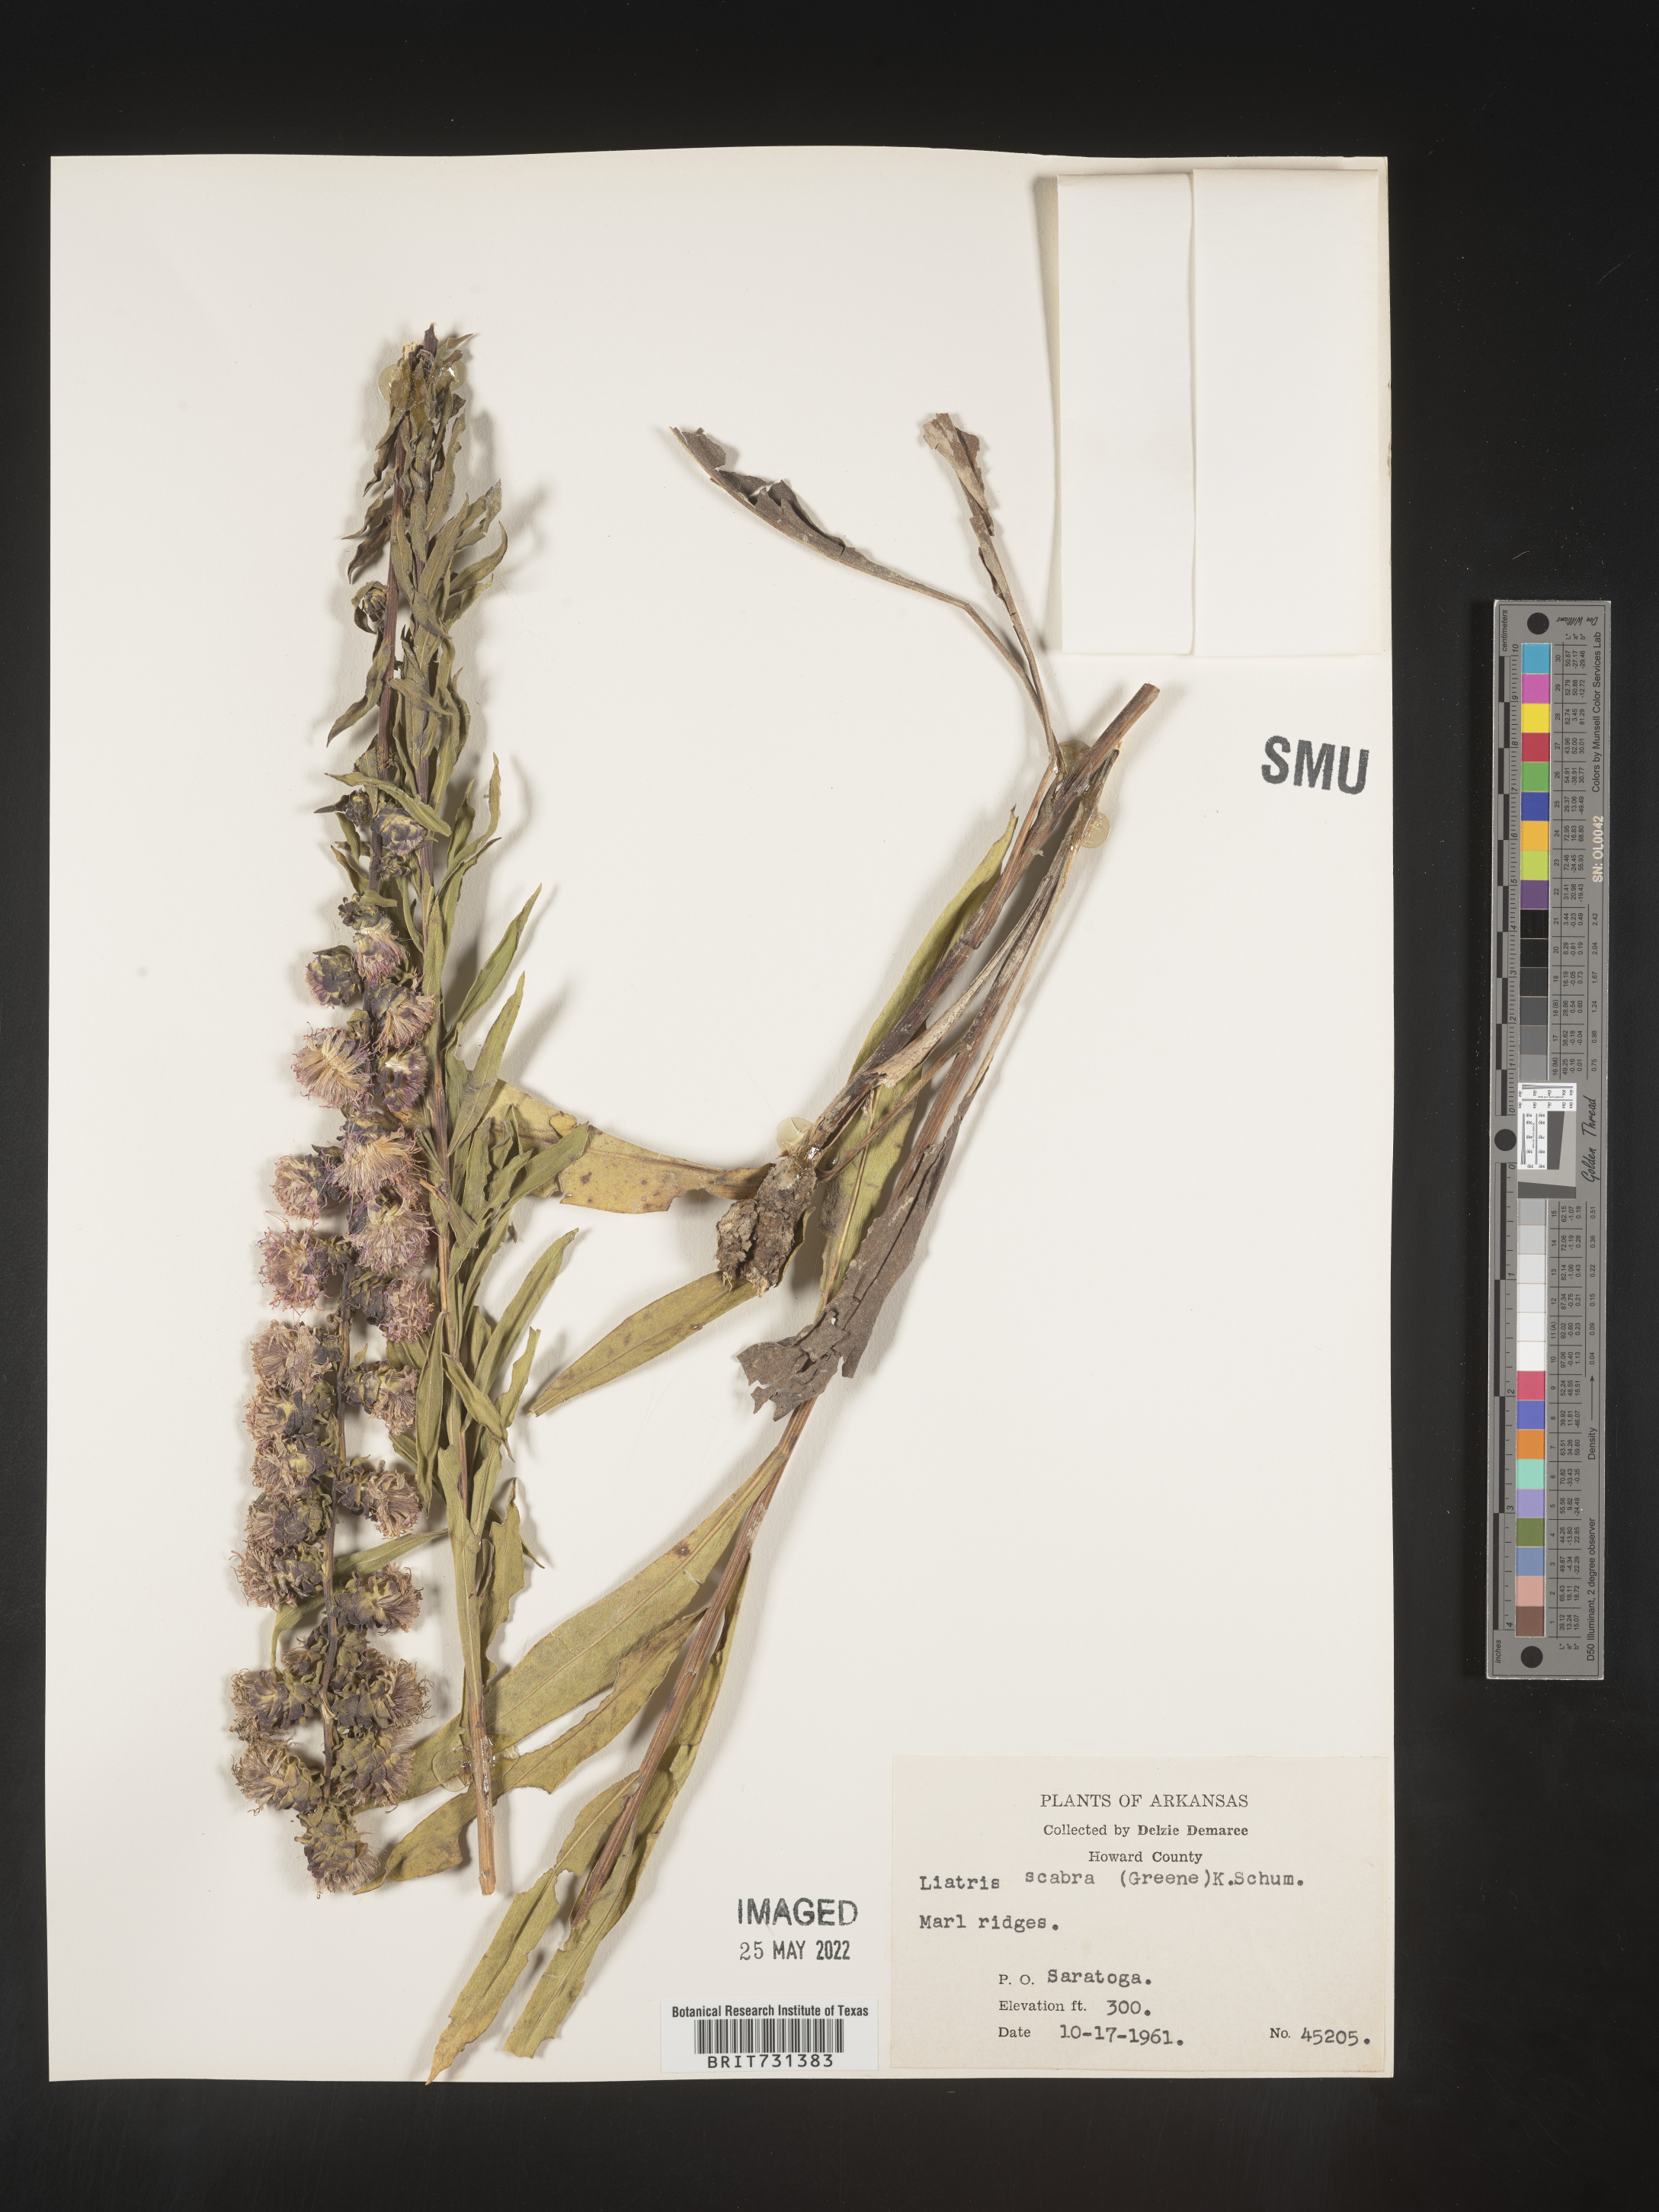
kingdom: Plantae
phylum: Tracheophyta
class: Magnoliopsida
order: Asterales
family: Asteraceae
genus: Liatris
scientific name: Liatris squarrulosa
